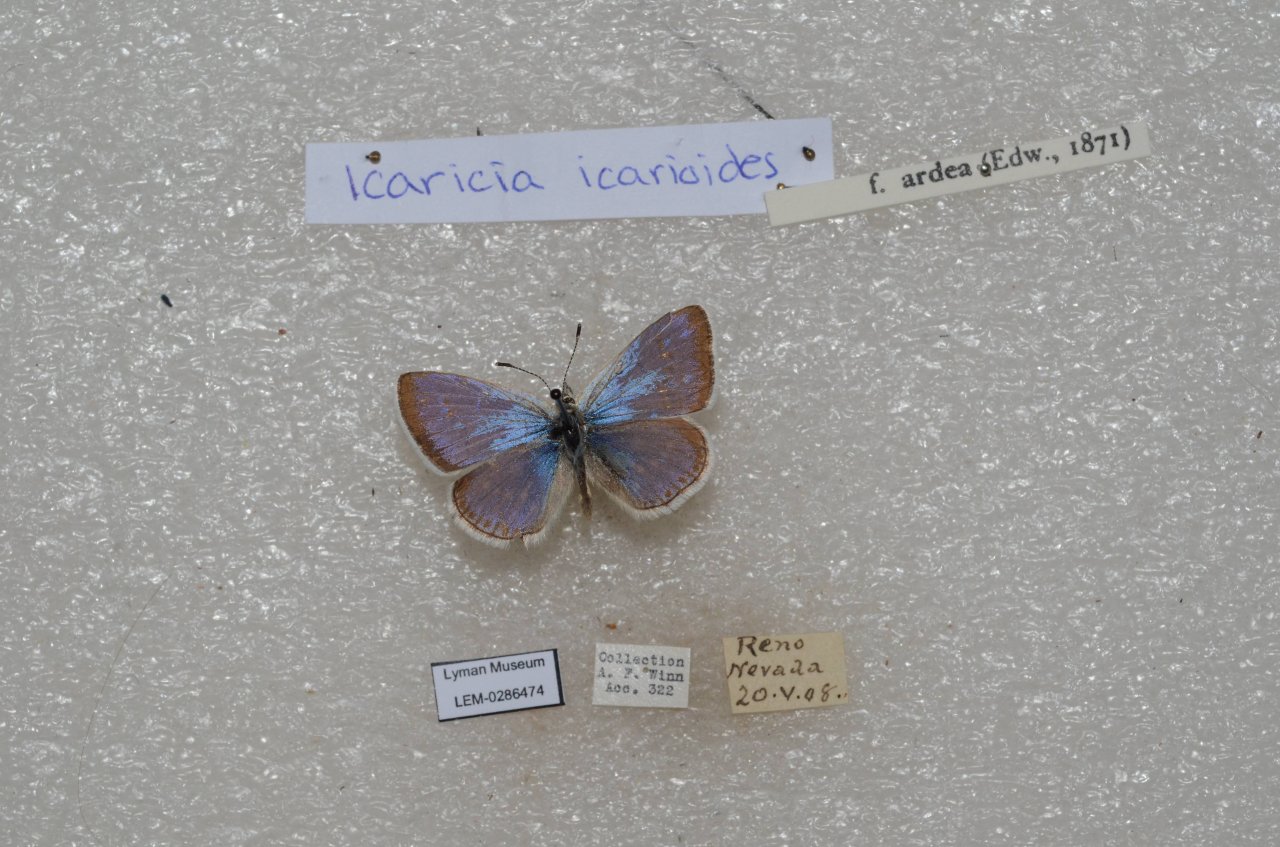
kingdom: Animalia
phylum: Arthropoda
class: Insecta
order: Lepidoptera
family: Lycaenidae
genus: Icaricia
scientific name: Icaricia icarioides
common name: Boisduval's Blue
